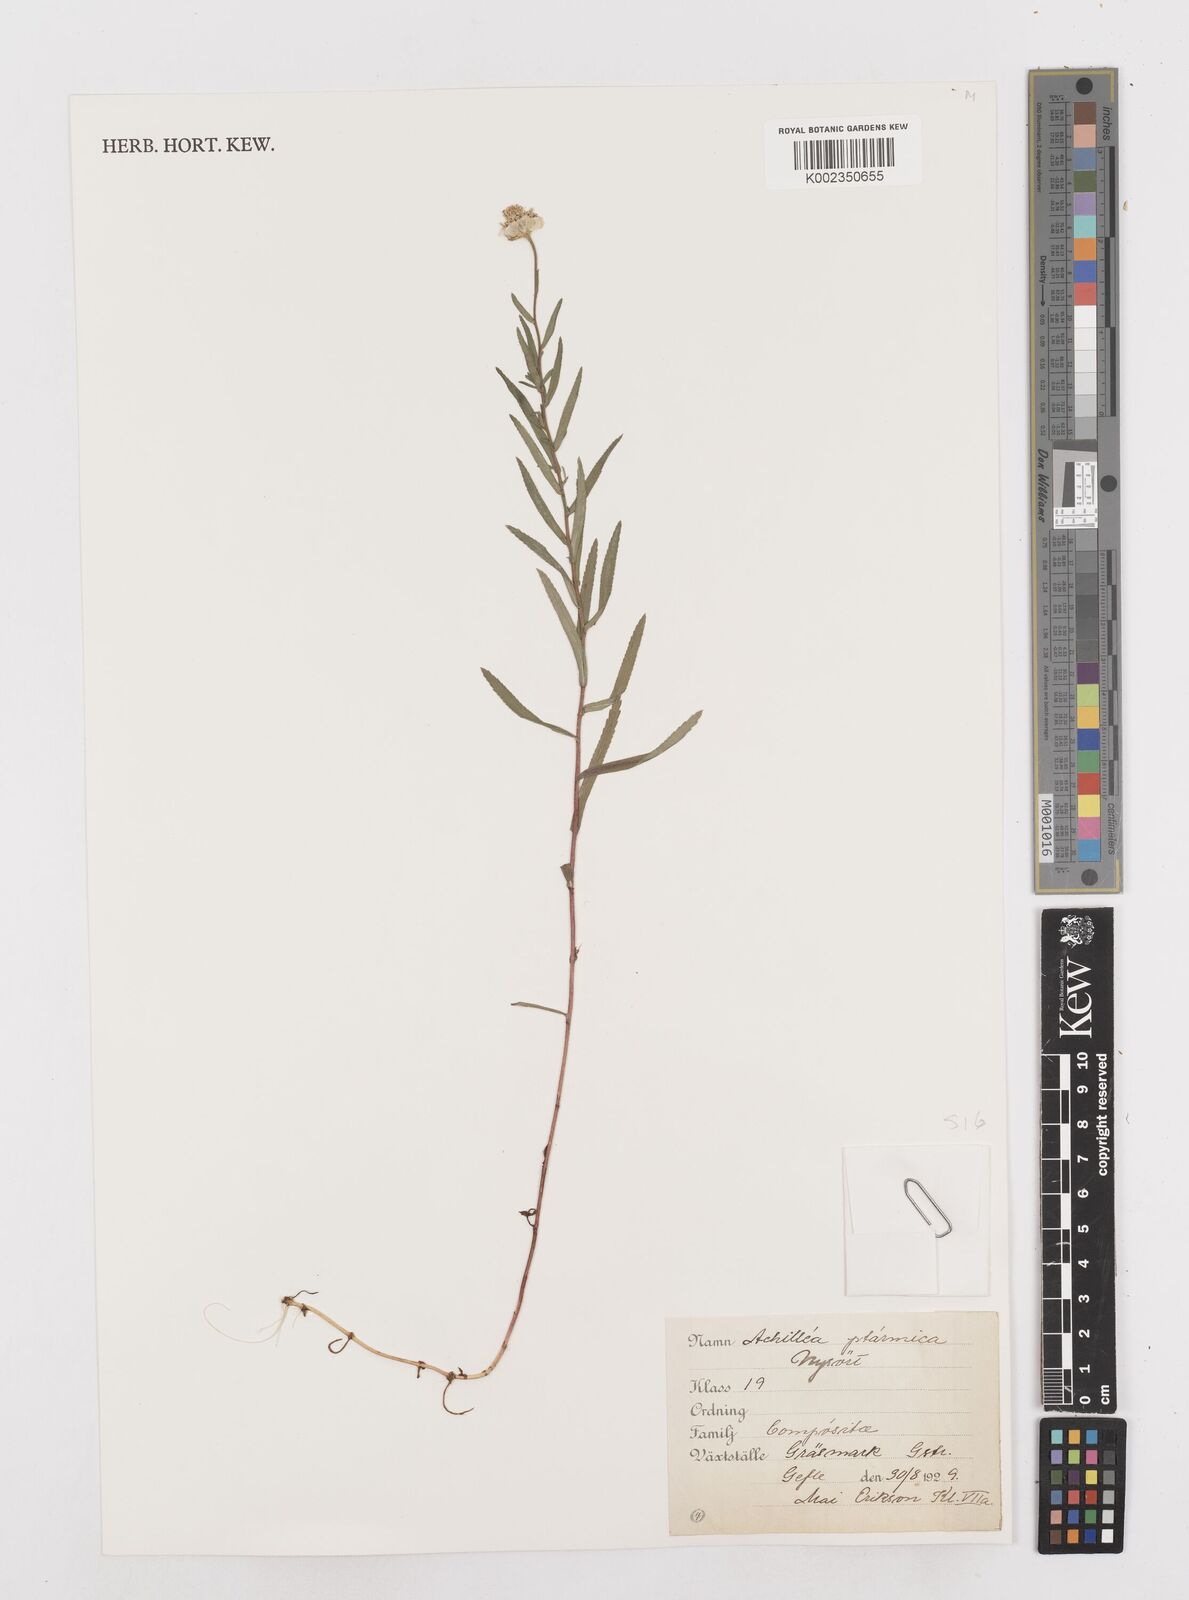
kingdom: Plantae
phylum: Tracheophyta
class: Magnoliopsida
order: Asterales
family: Asteraceae
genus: Achillea
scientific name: Achillea ptarmica
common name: Sneezeweed
